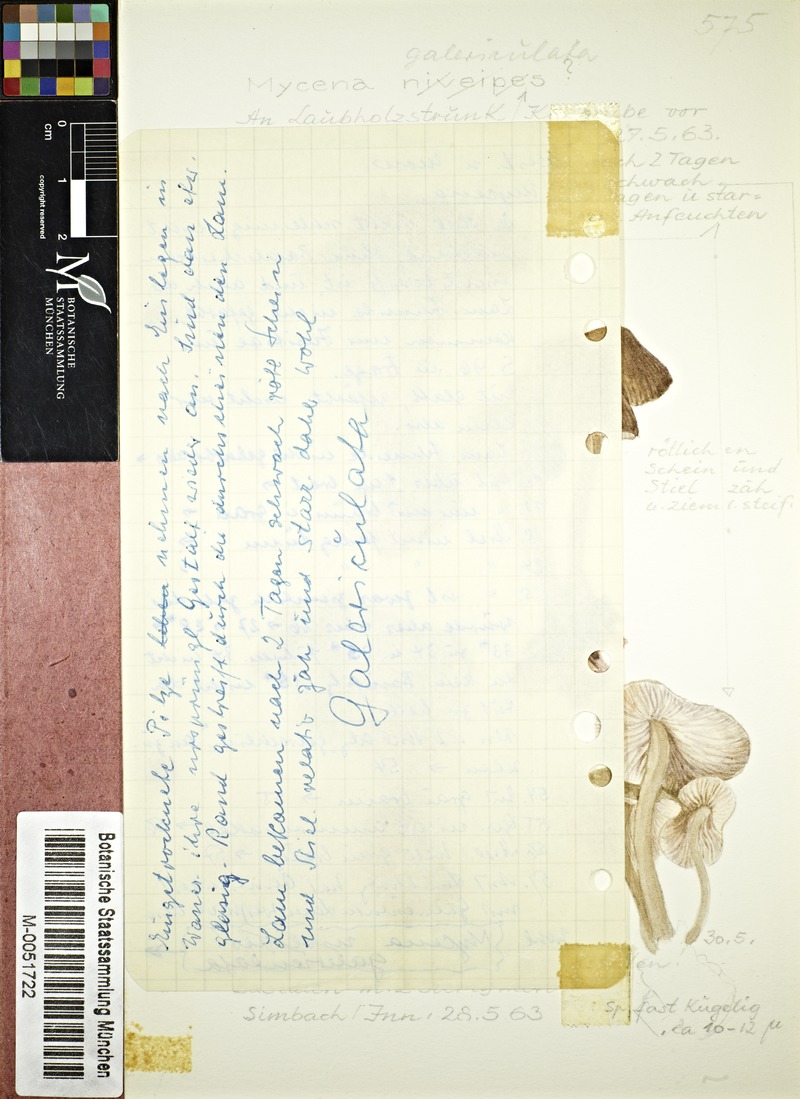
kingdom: Fungi
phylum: Basidiomycota
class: Agaricomycetes
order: Agaricales
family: Mycenaceae
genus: Mycena
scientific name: Mycena galericulata
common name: Bonnet mycena
